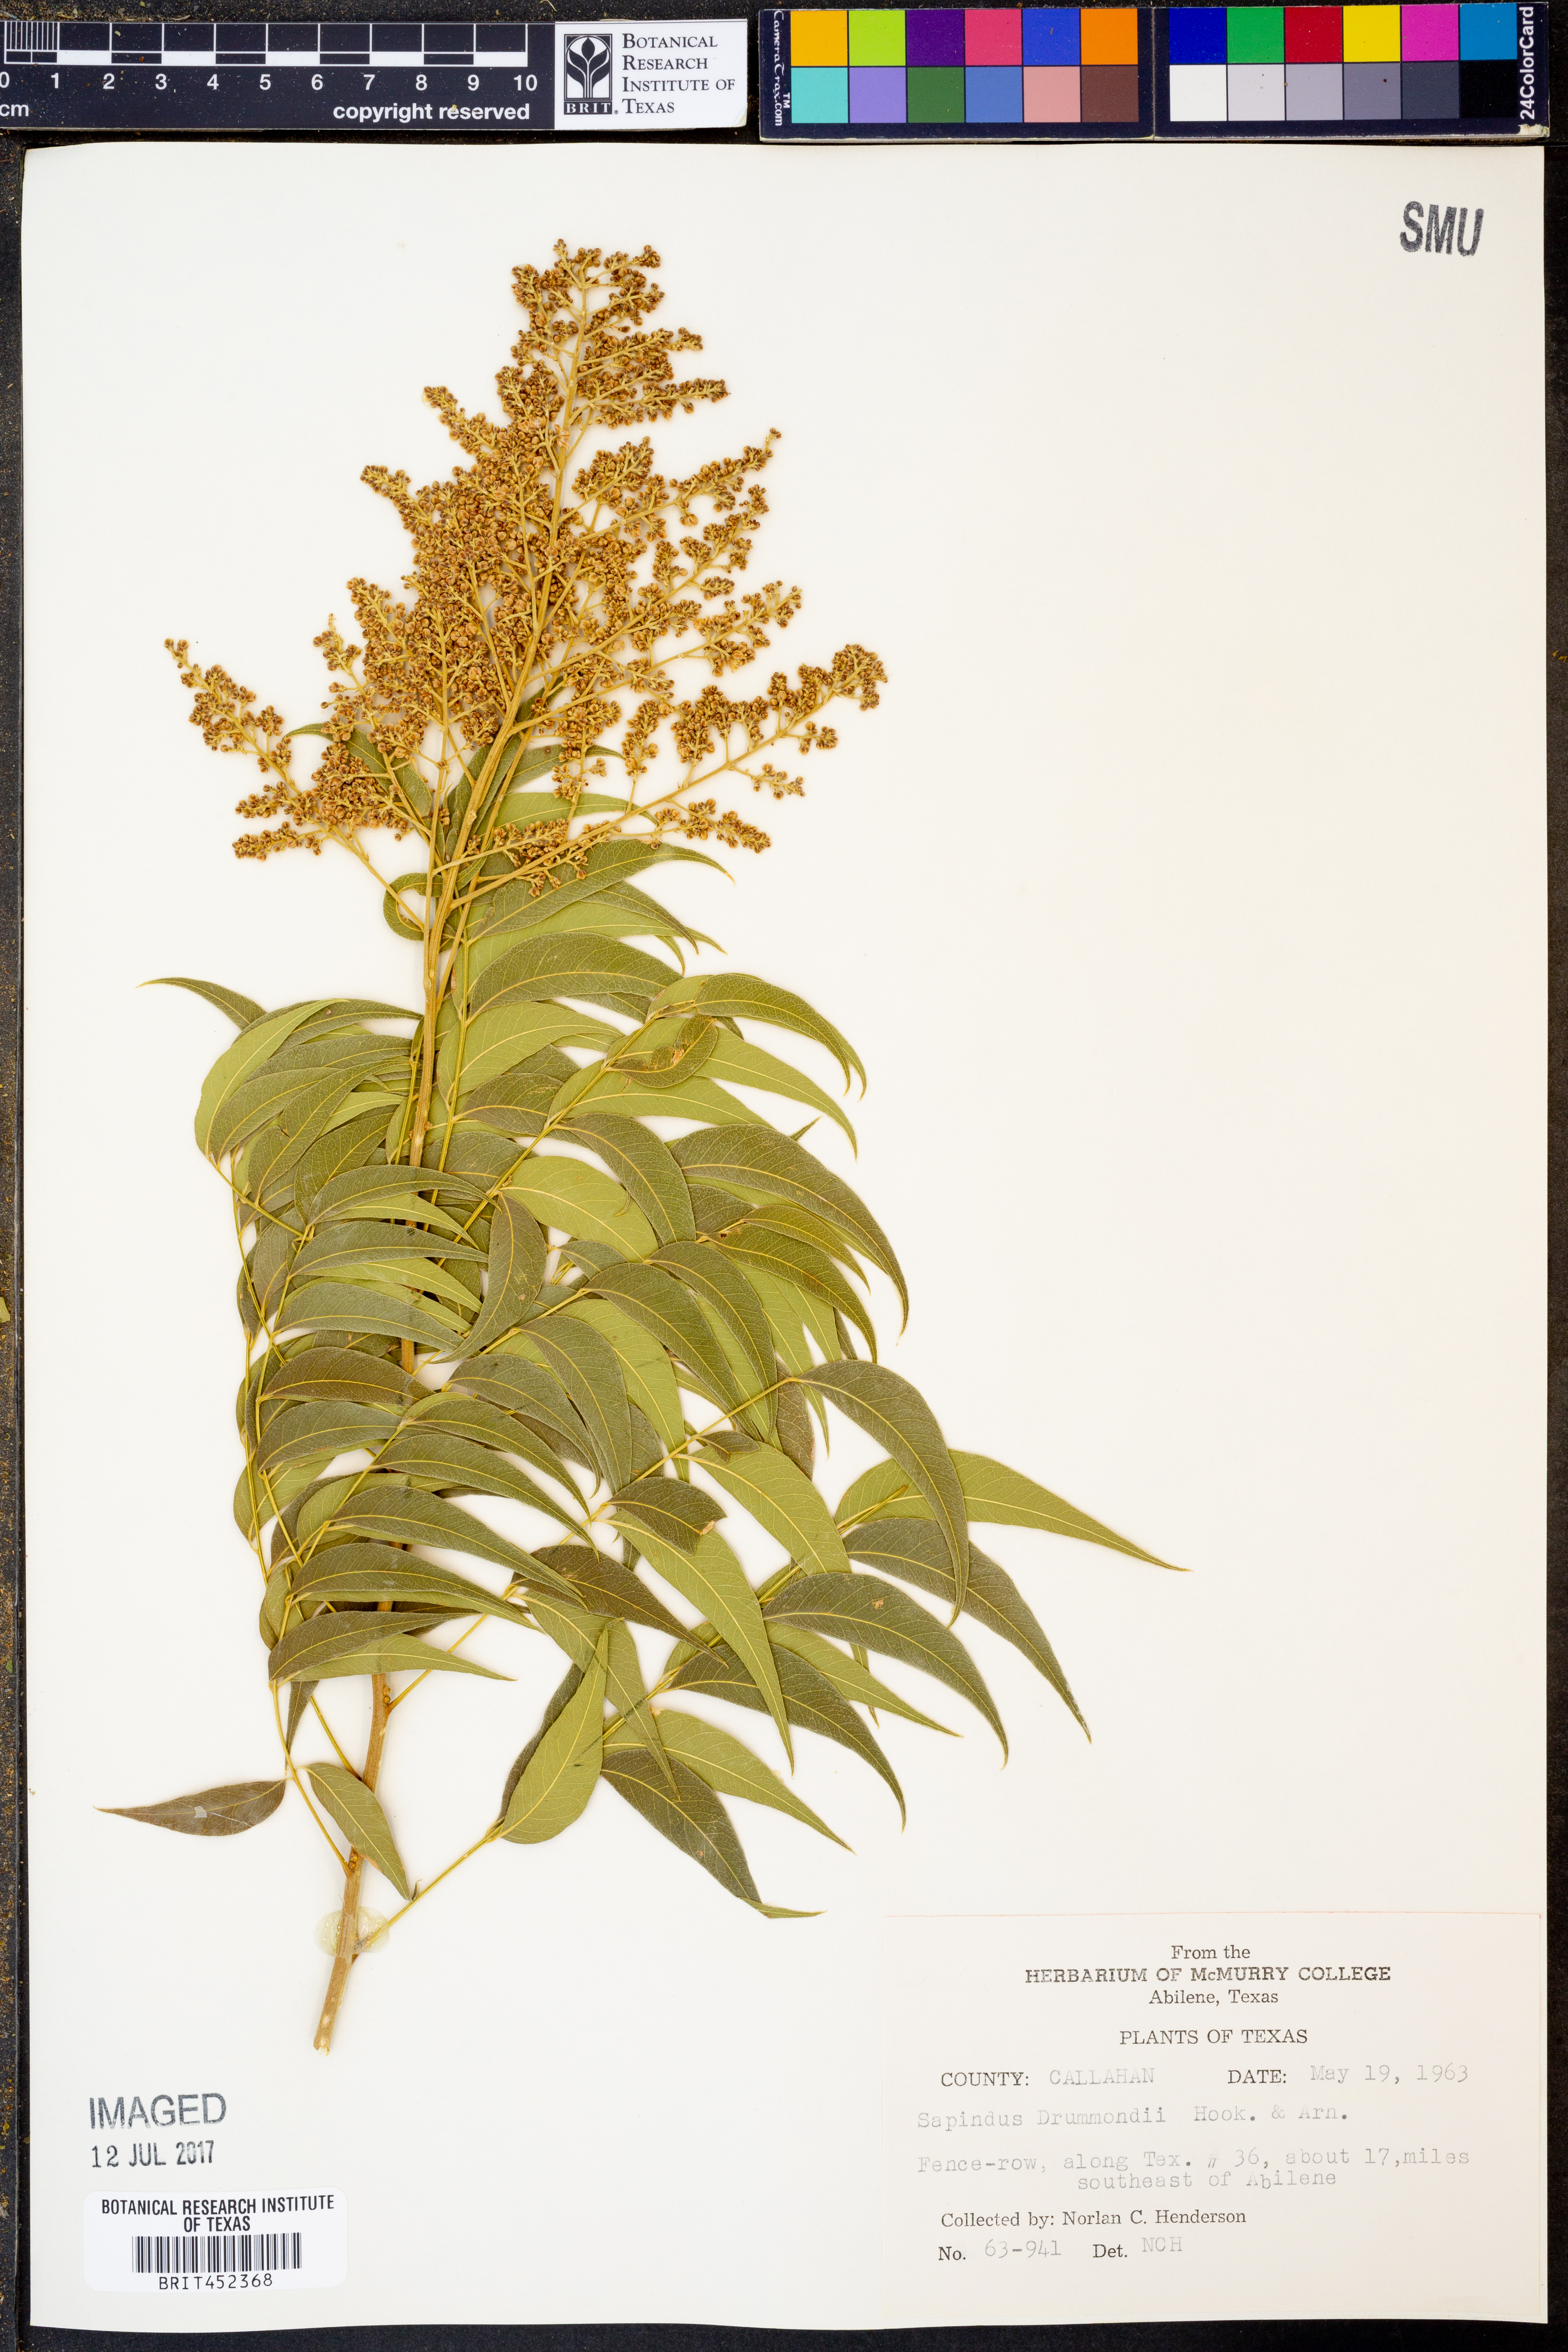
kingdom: Plantae
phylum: Tracheophyta
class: Magnoliopsida
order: Sapindales
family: Sapindaceae
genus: Sapindus
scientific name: Sapindus drummondii
